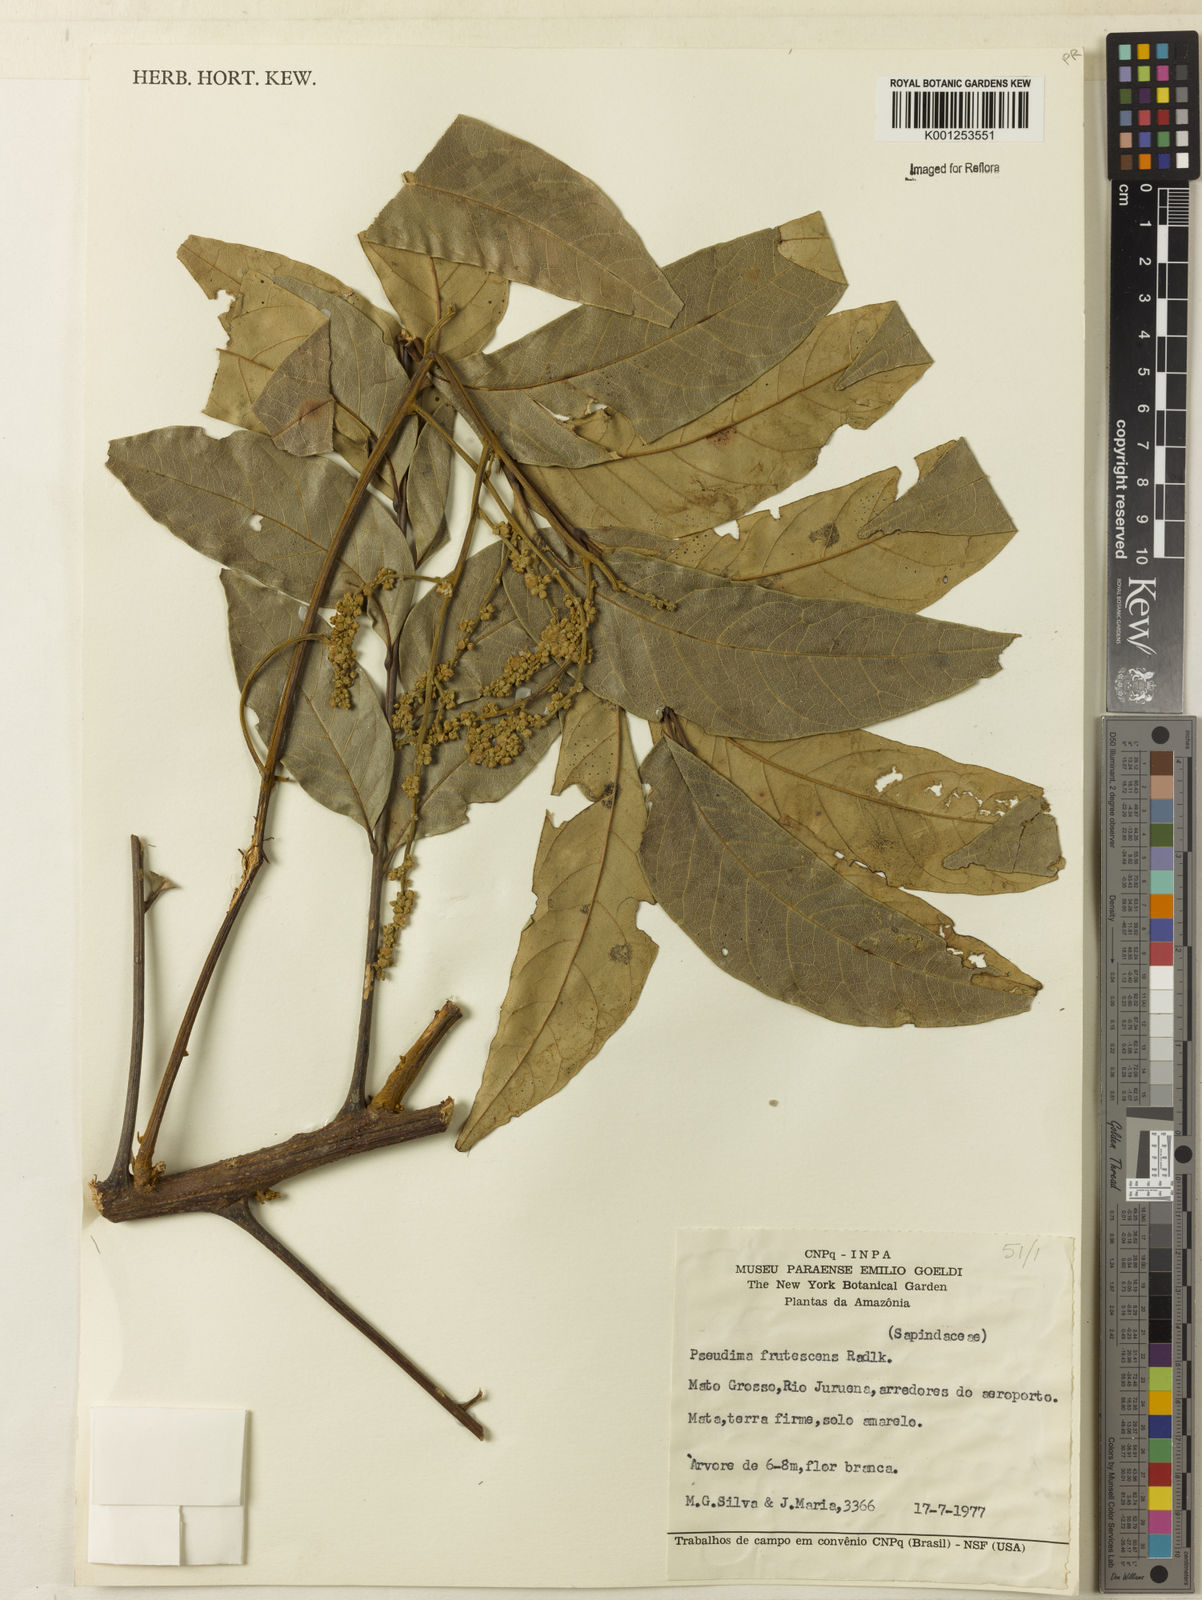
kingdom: Plantae
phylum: Tracheophyta
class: Magnoliopsida
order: Sapindales
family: Sapindaceae
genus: Pseudima
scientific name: Pseudima frutescens
